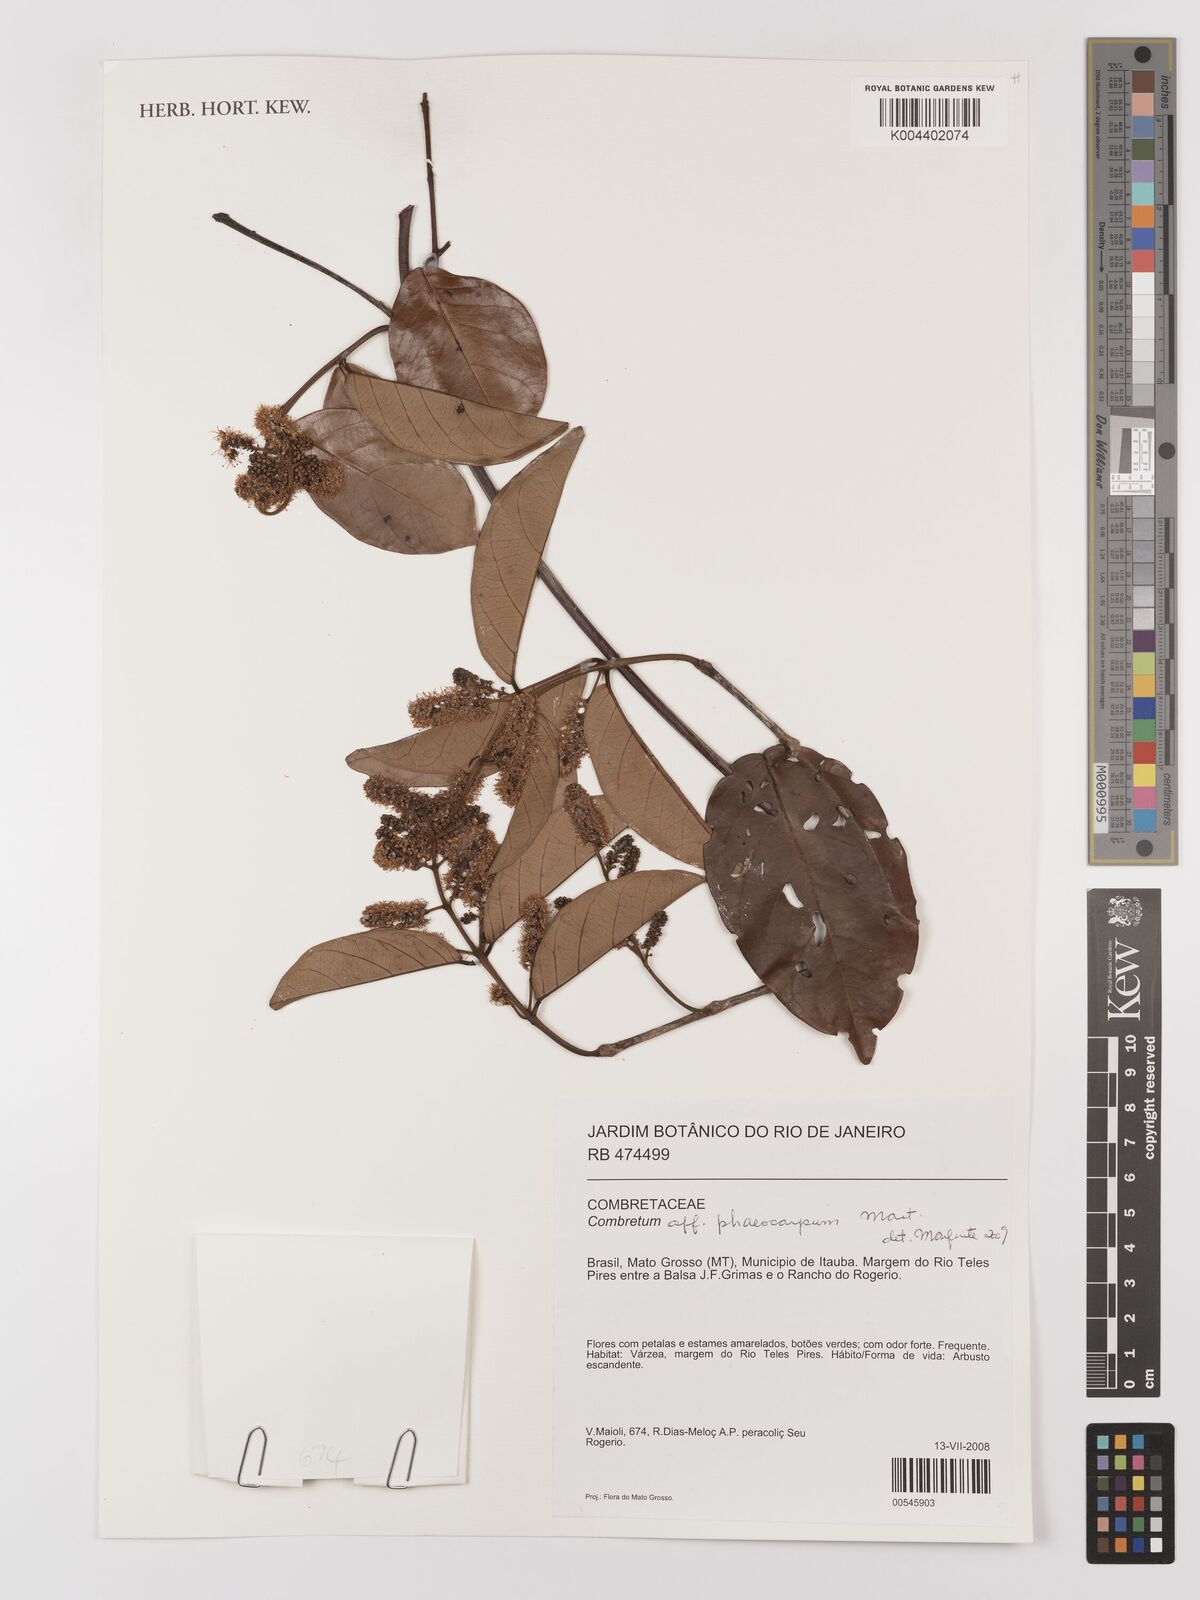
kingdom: Plantae
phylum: Tracheophyta
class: Magnoliopsida
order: Myrtales
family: Combretaceae
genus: Combretum
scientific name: Combretum pyramidatum
